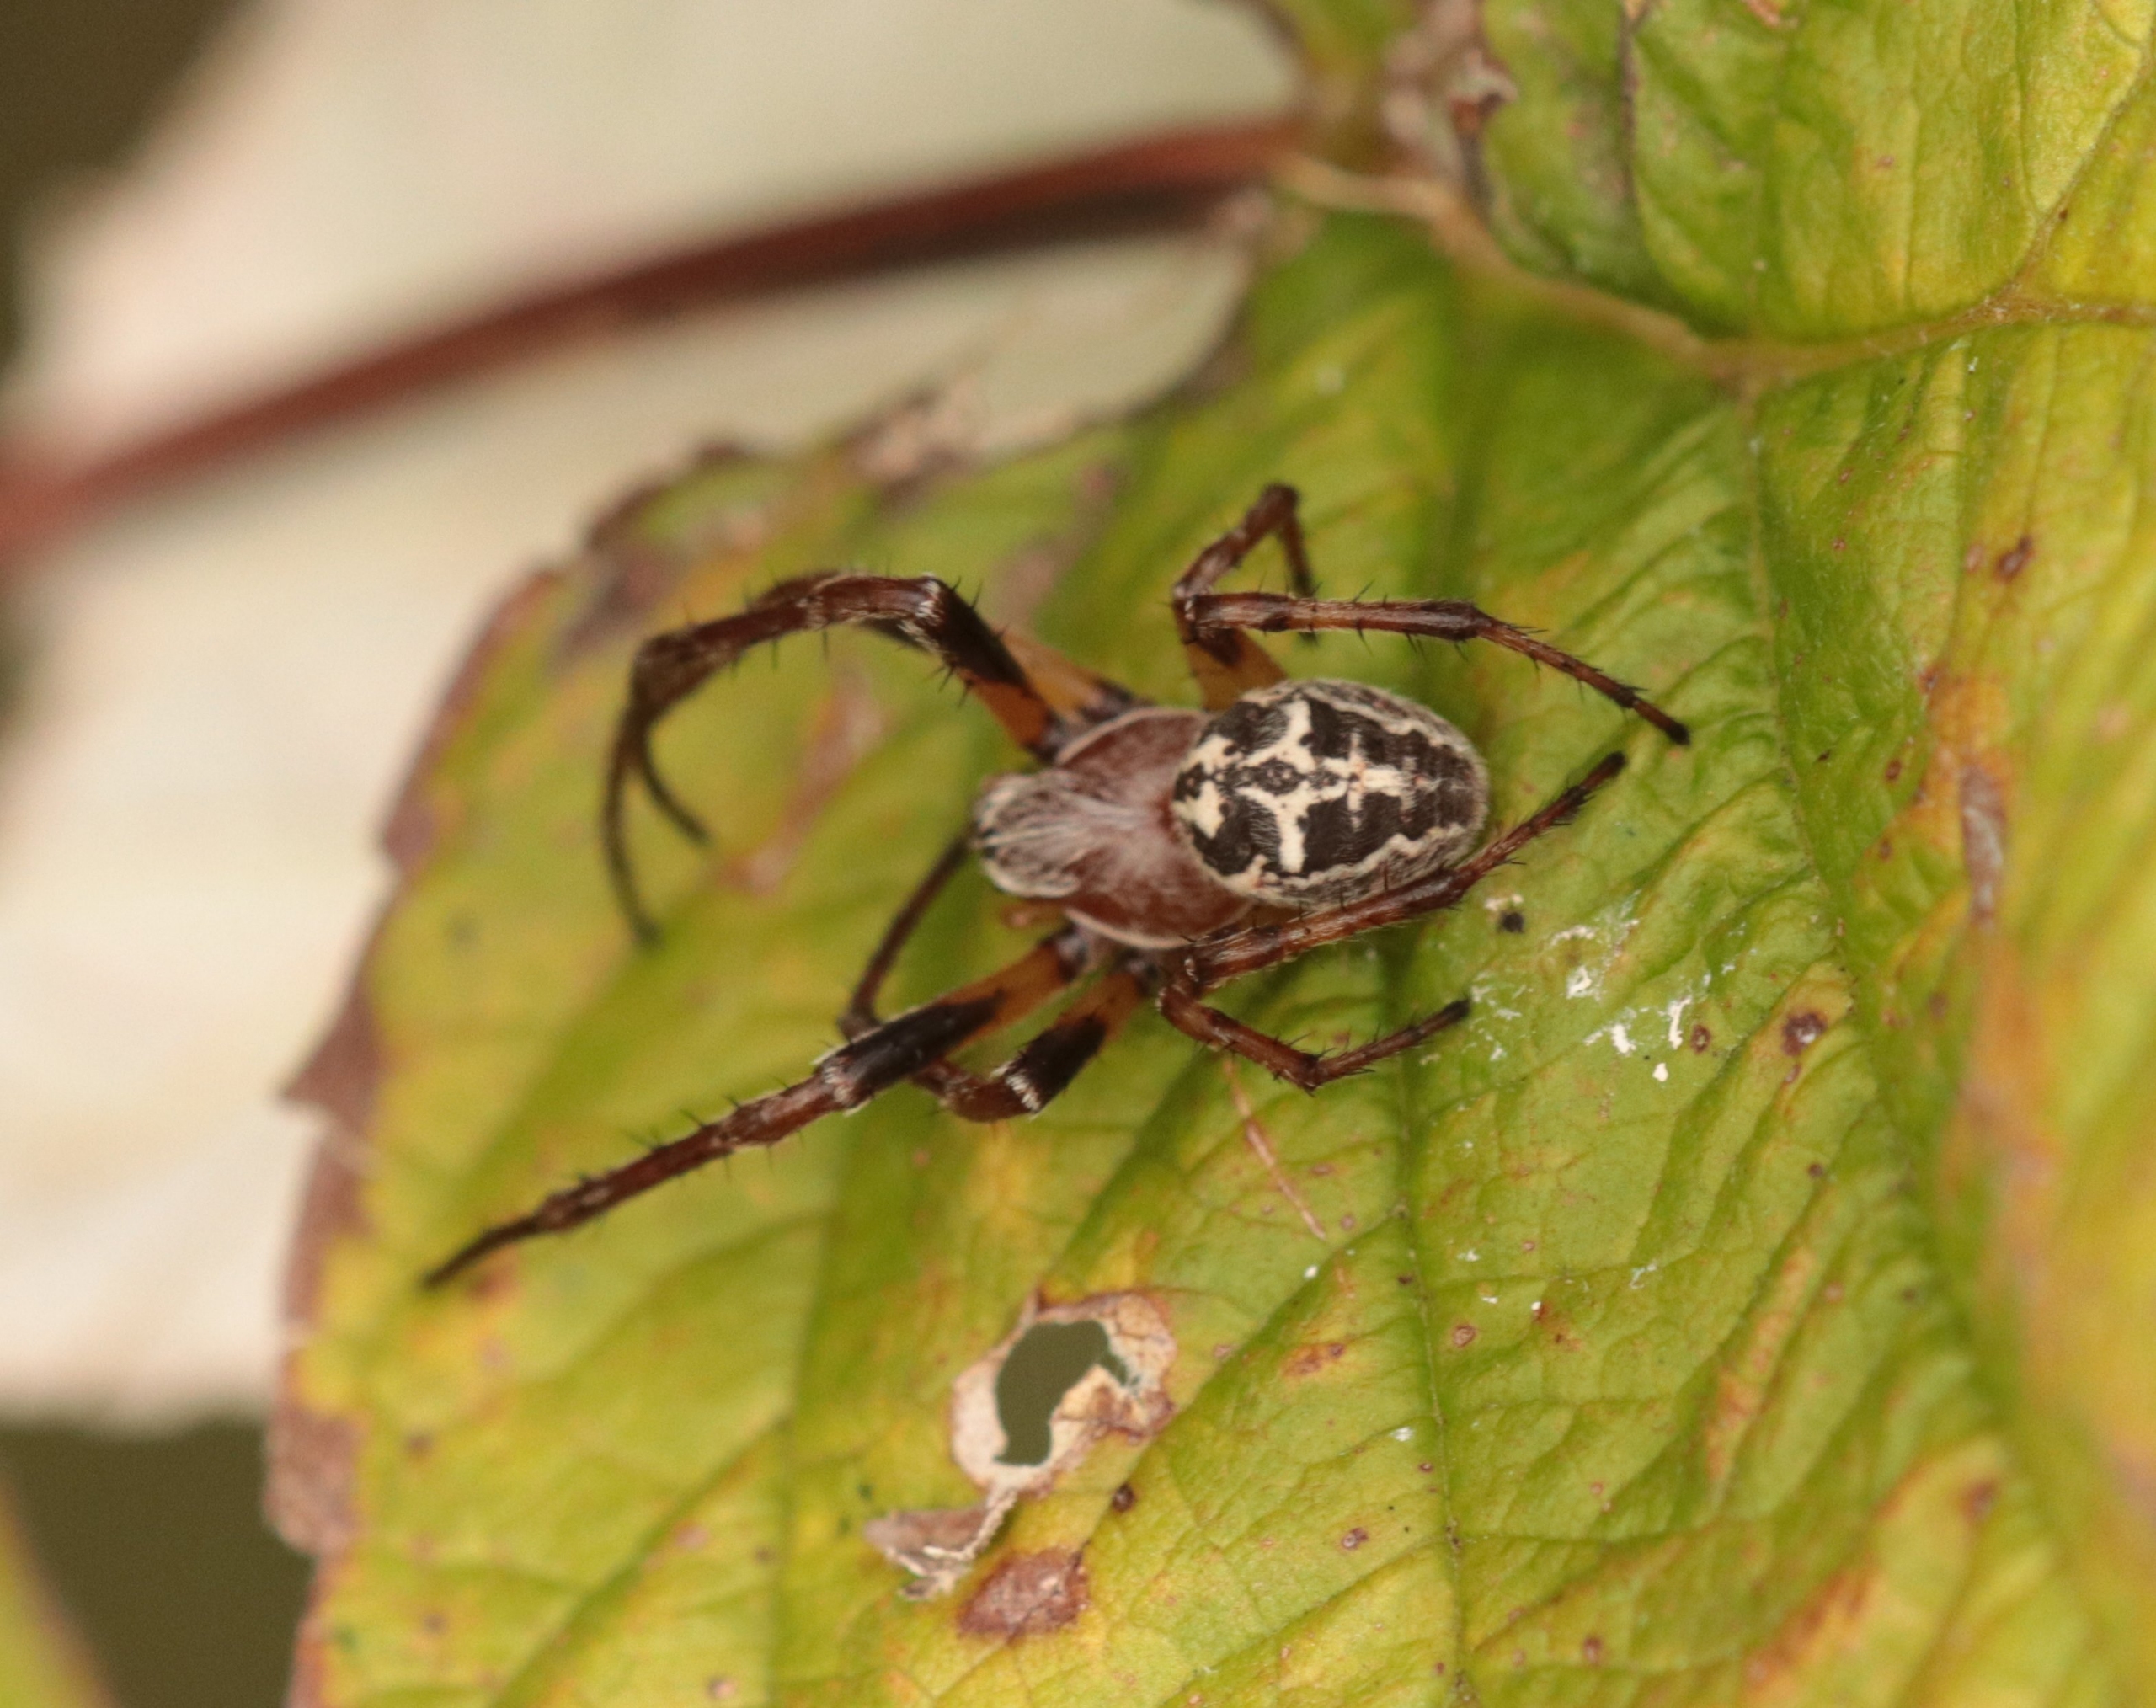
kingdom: Animalia
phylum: Arthropoda
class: Arachnida
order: Araneae
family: Araneidae
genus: Larinioides
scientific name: Larinioides cornutus
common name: Sivhjulspinder
